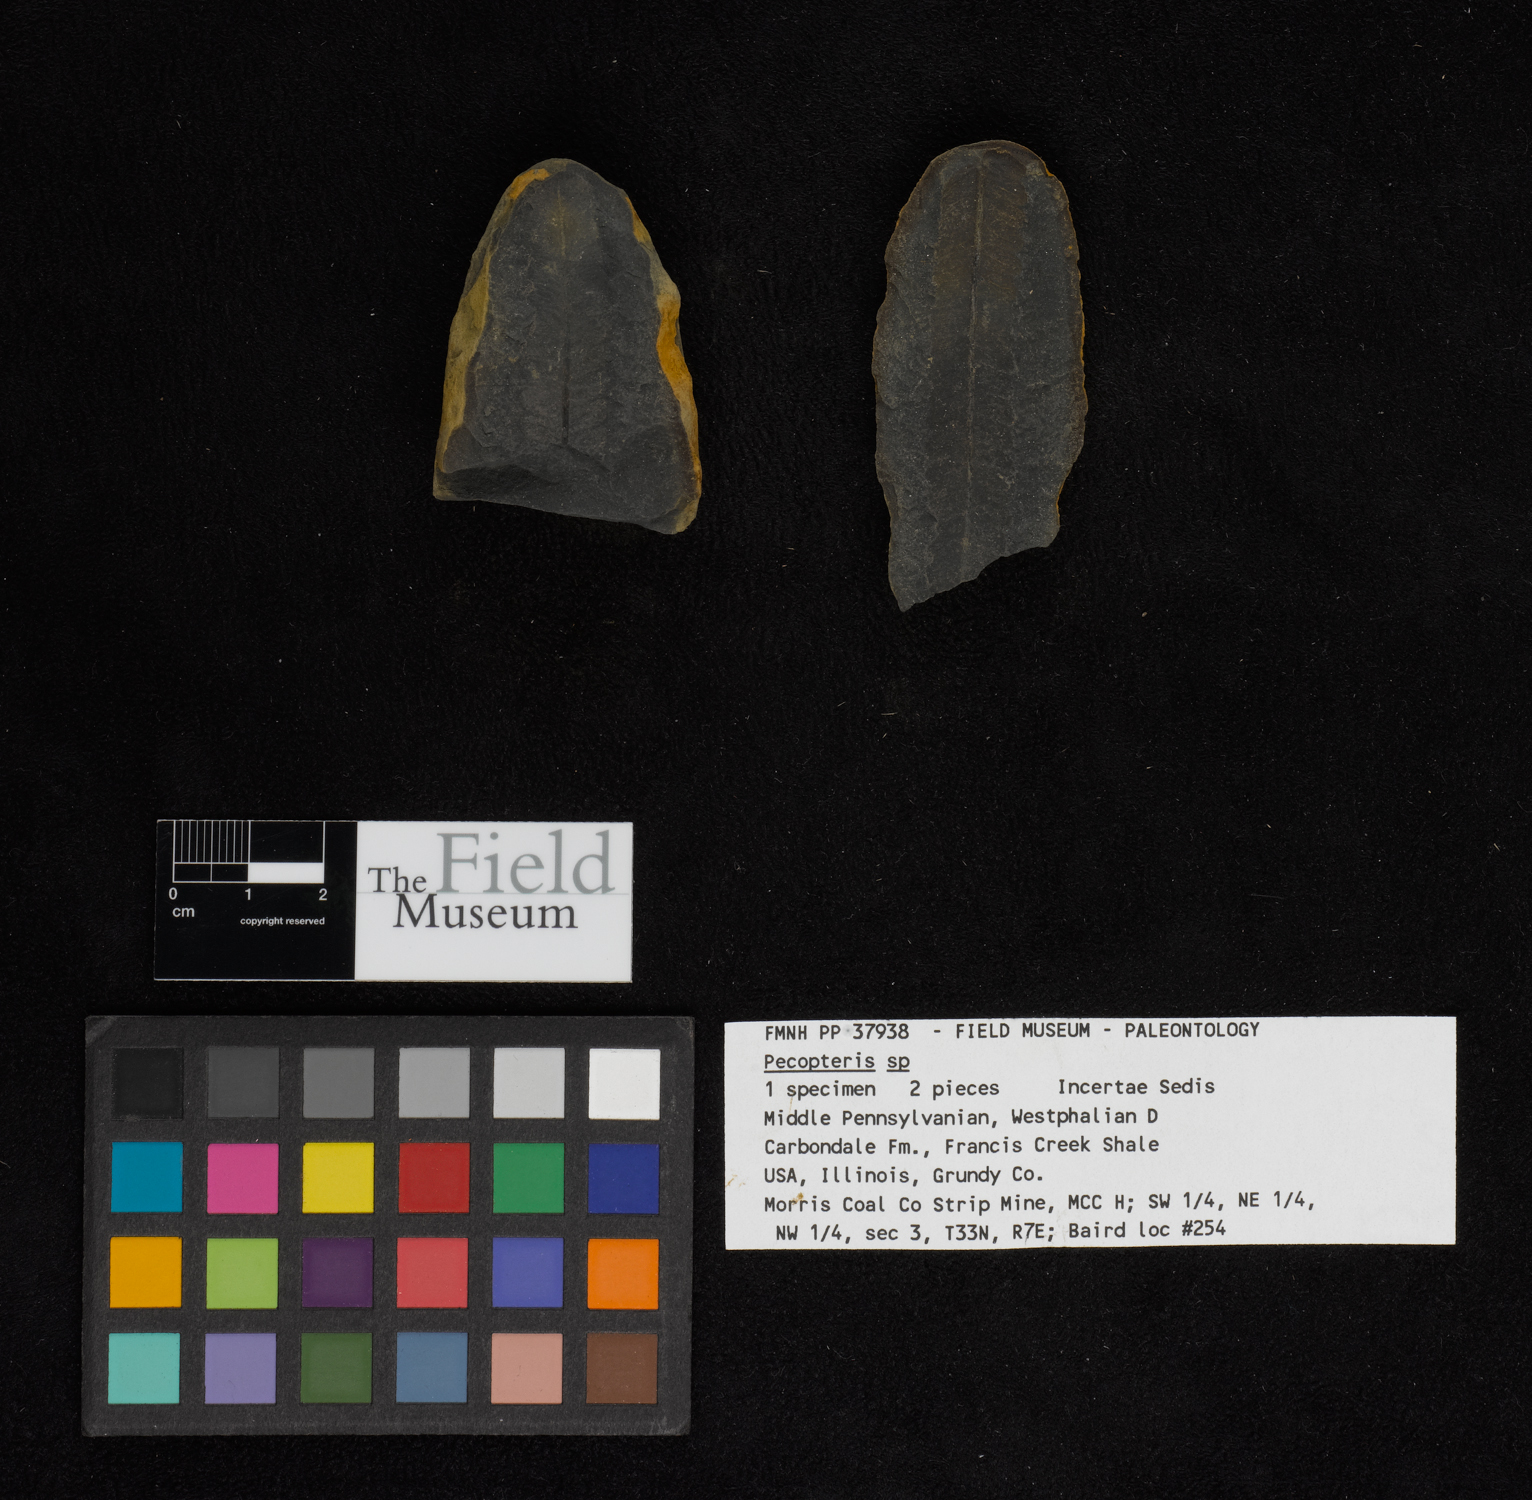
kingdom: Plantae
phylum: Tracheophyta
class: Polypodiopsida
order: Marattiales
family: Asterothecaceae
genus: Pecopteris
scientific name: Pecopteris
